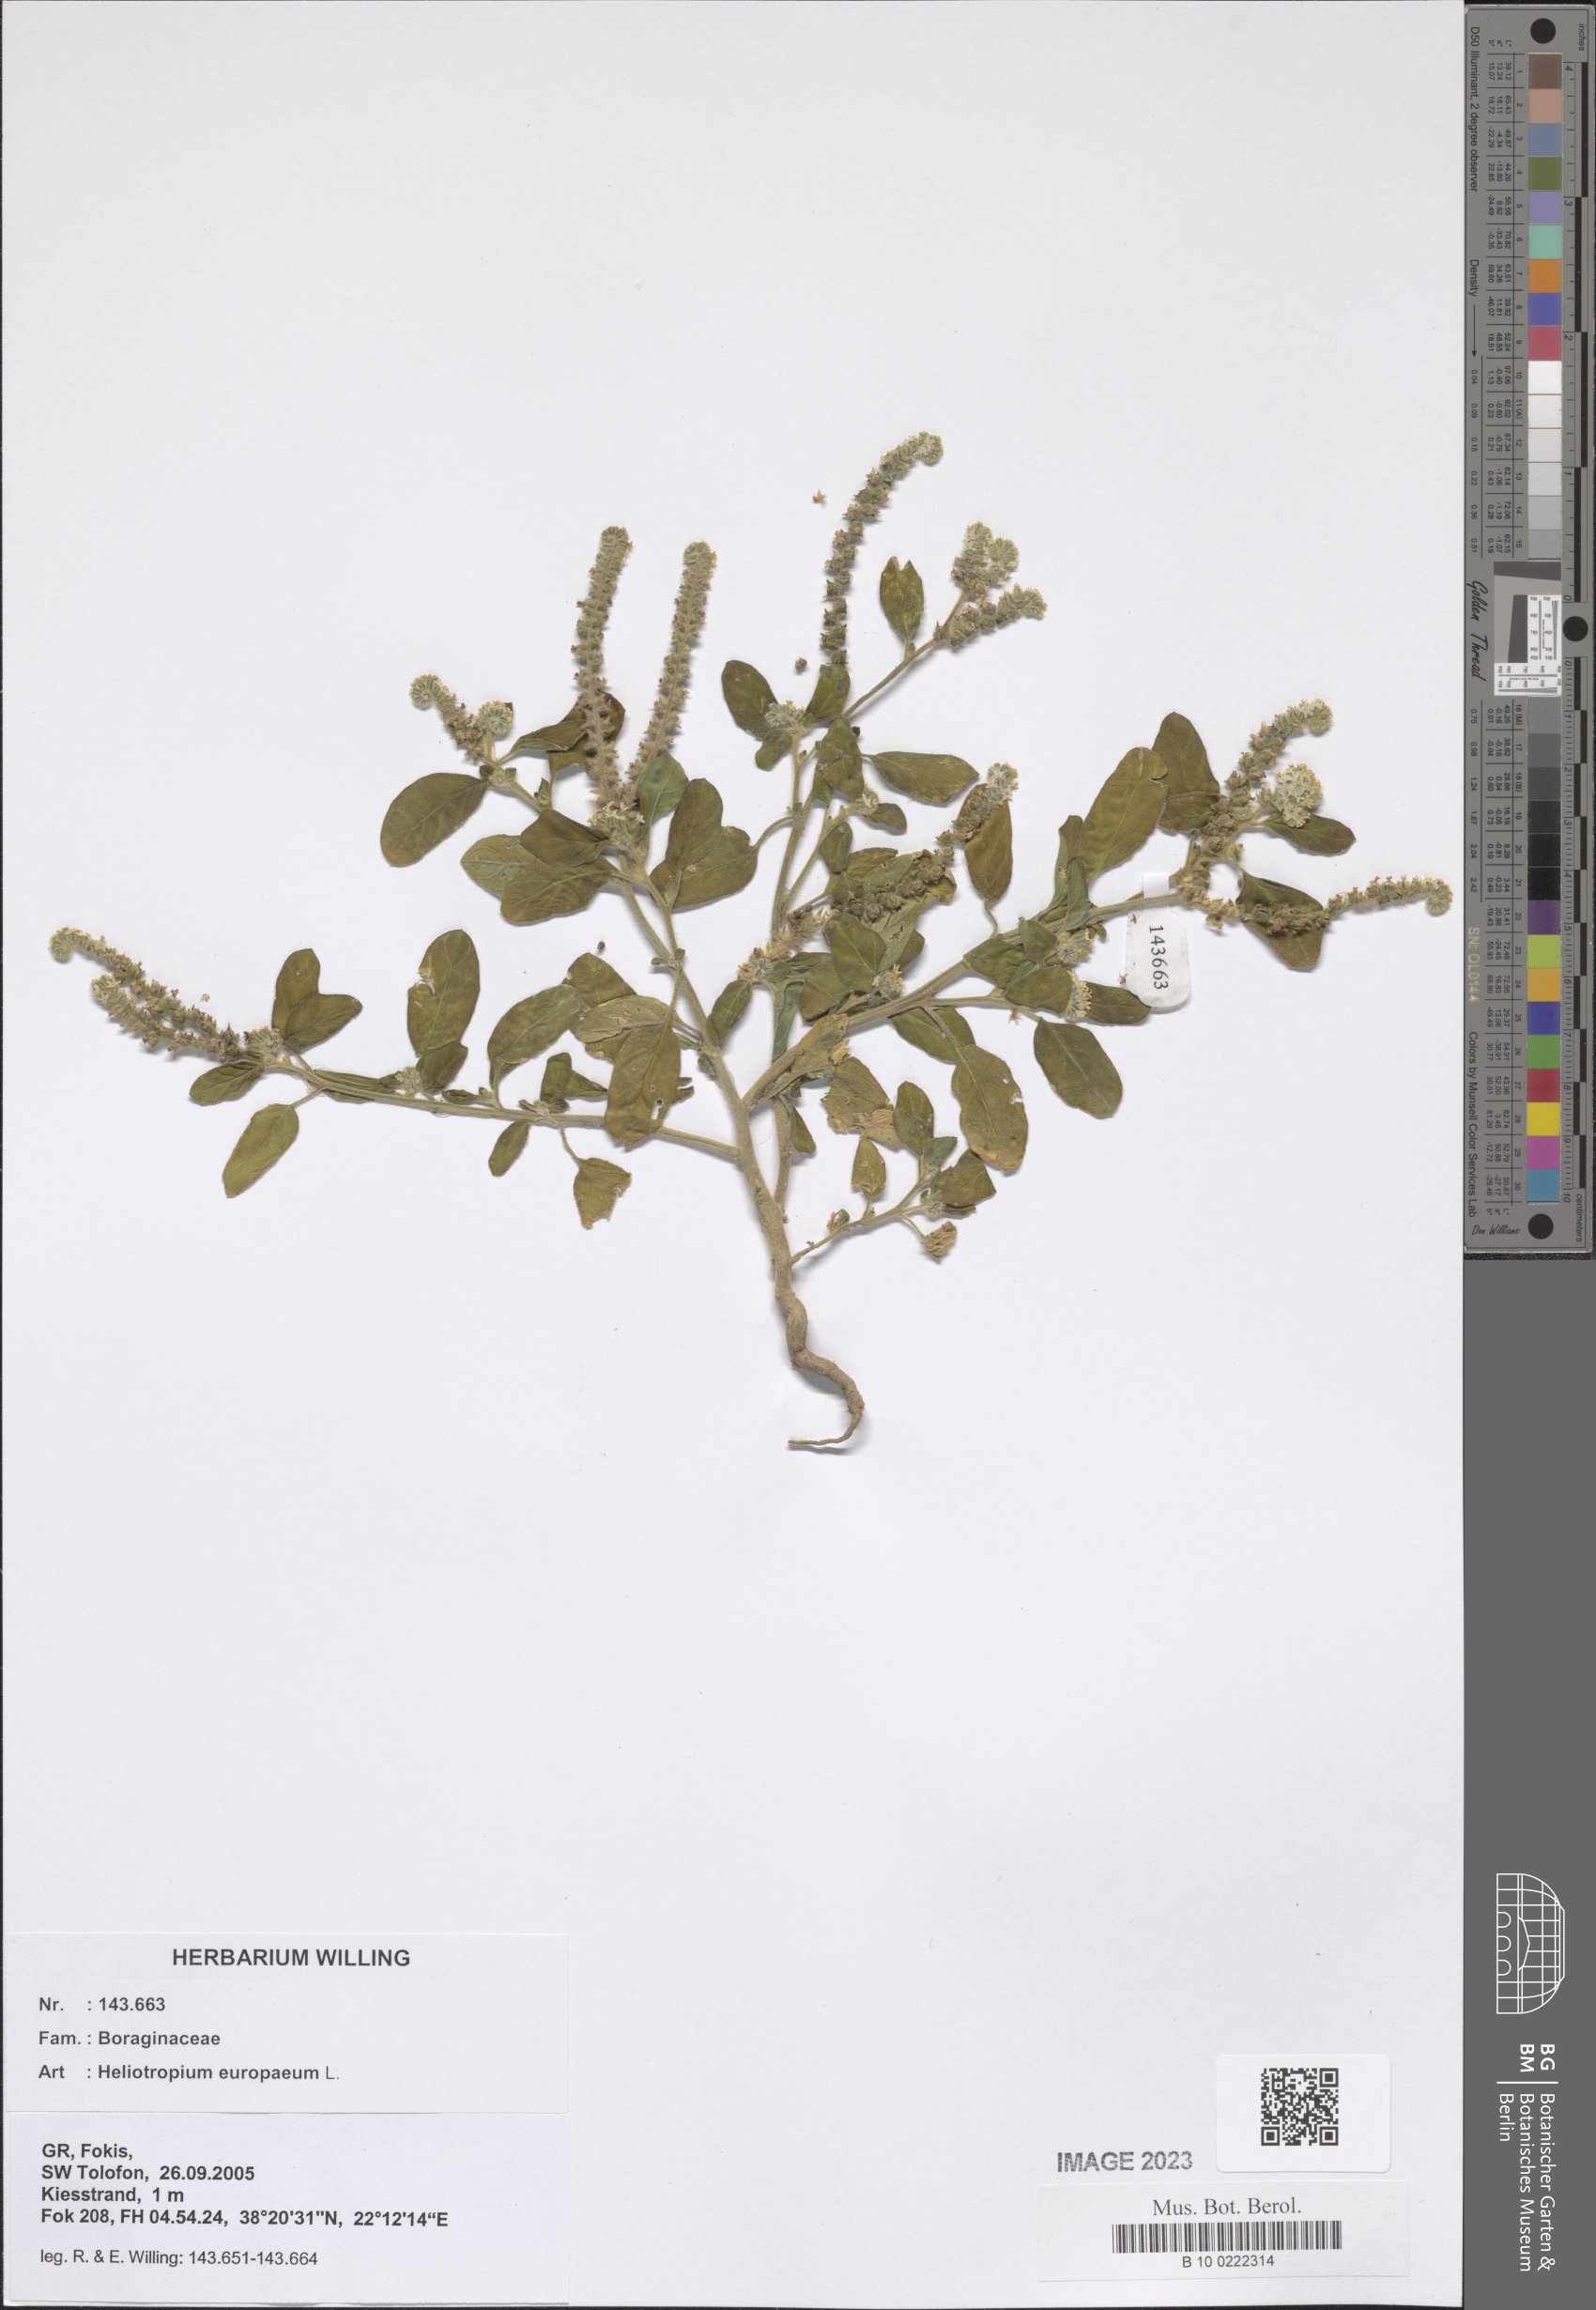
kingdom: Plantae
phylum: Tracheophyta
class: Magnoliopsida
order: Boraginales
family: Heliotropiaceae
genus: Heliotropium
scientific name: Heliotropium europaeum
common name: European heliotrope
